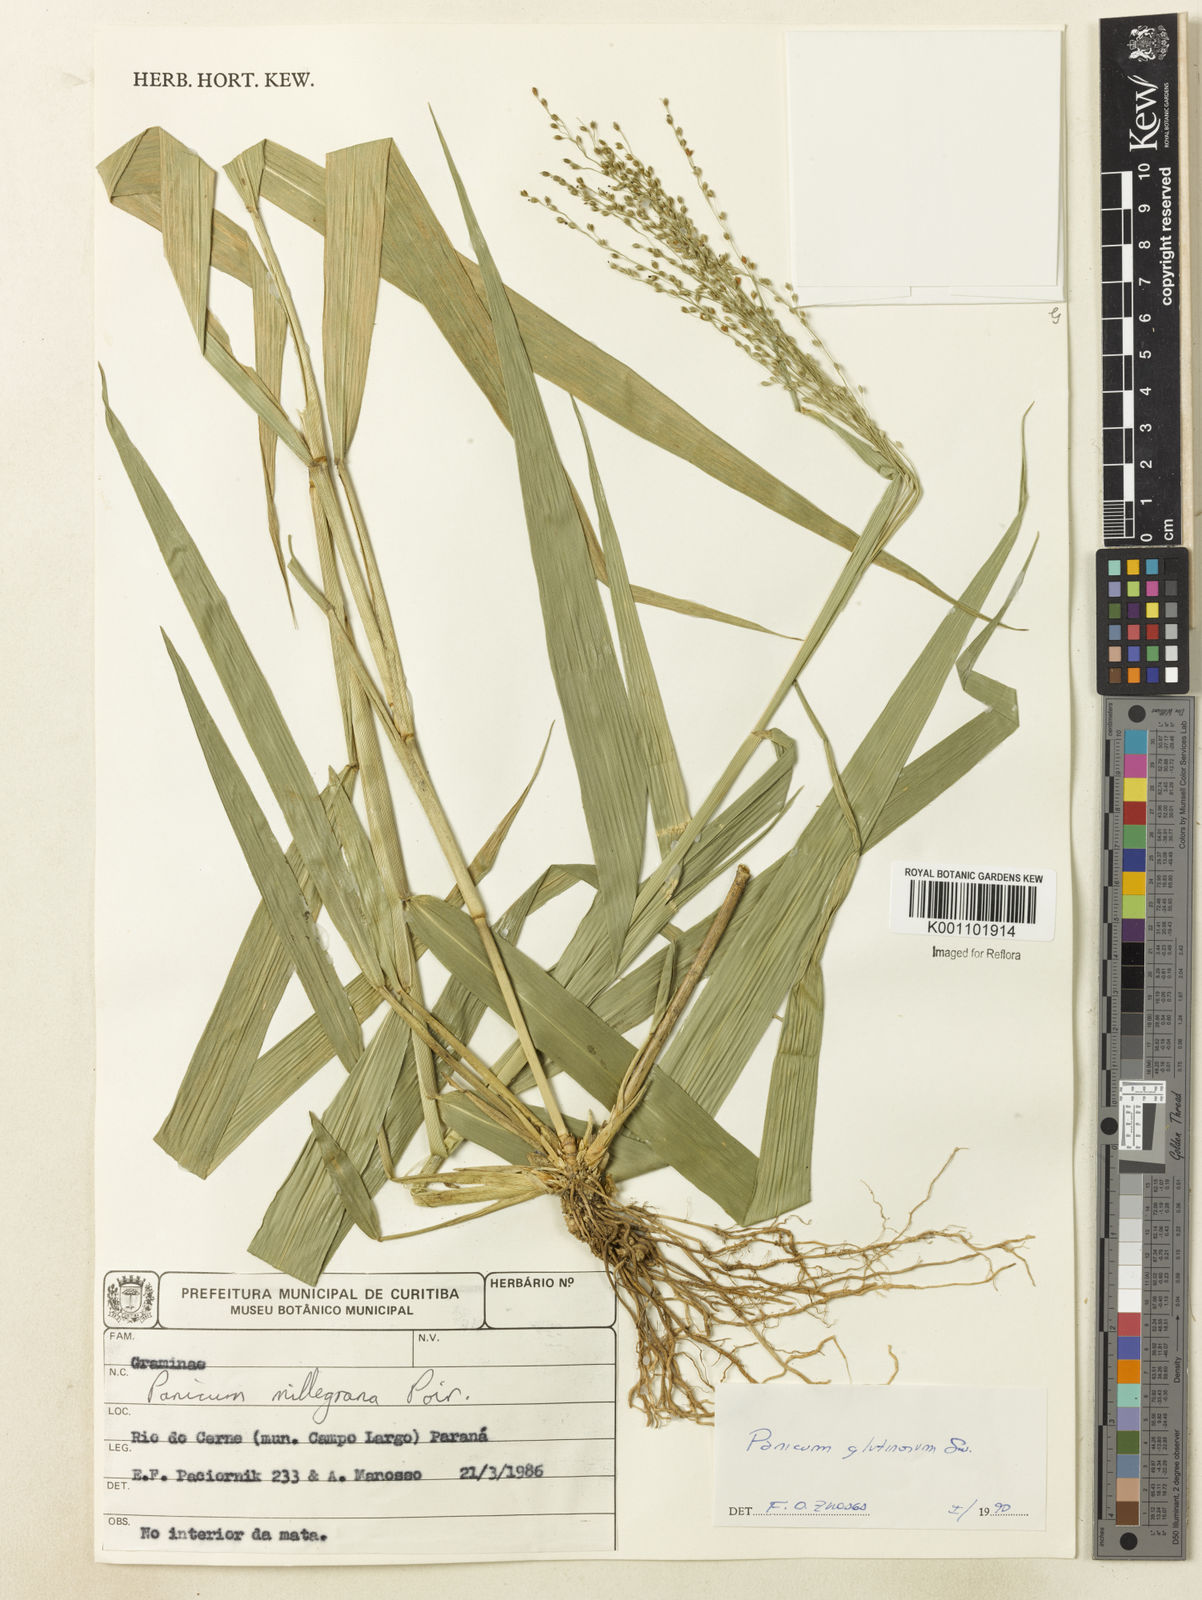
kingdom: Plantae
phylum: Tracheophyta
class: Liliopsida
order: Poales
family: Poaceae
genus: Homolepis
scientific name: Homolepis glutinosa
